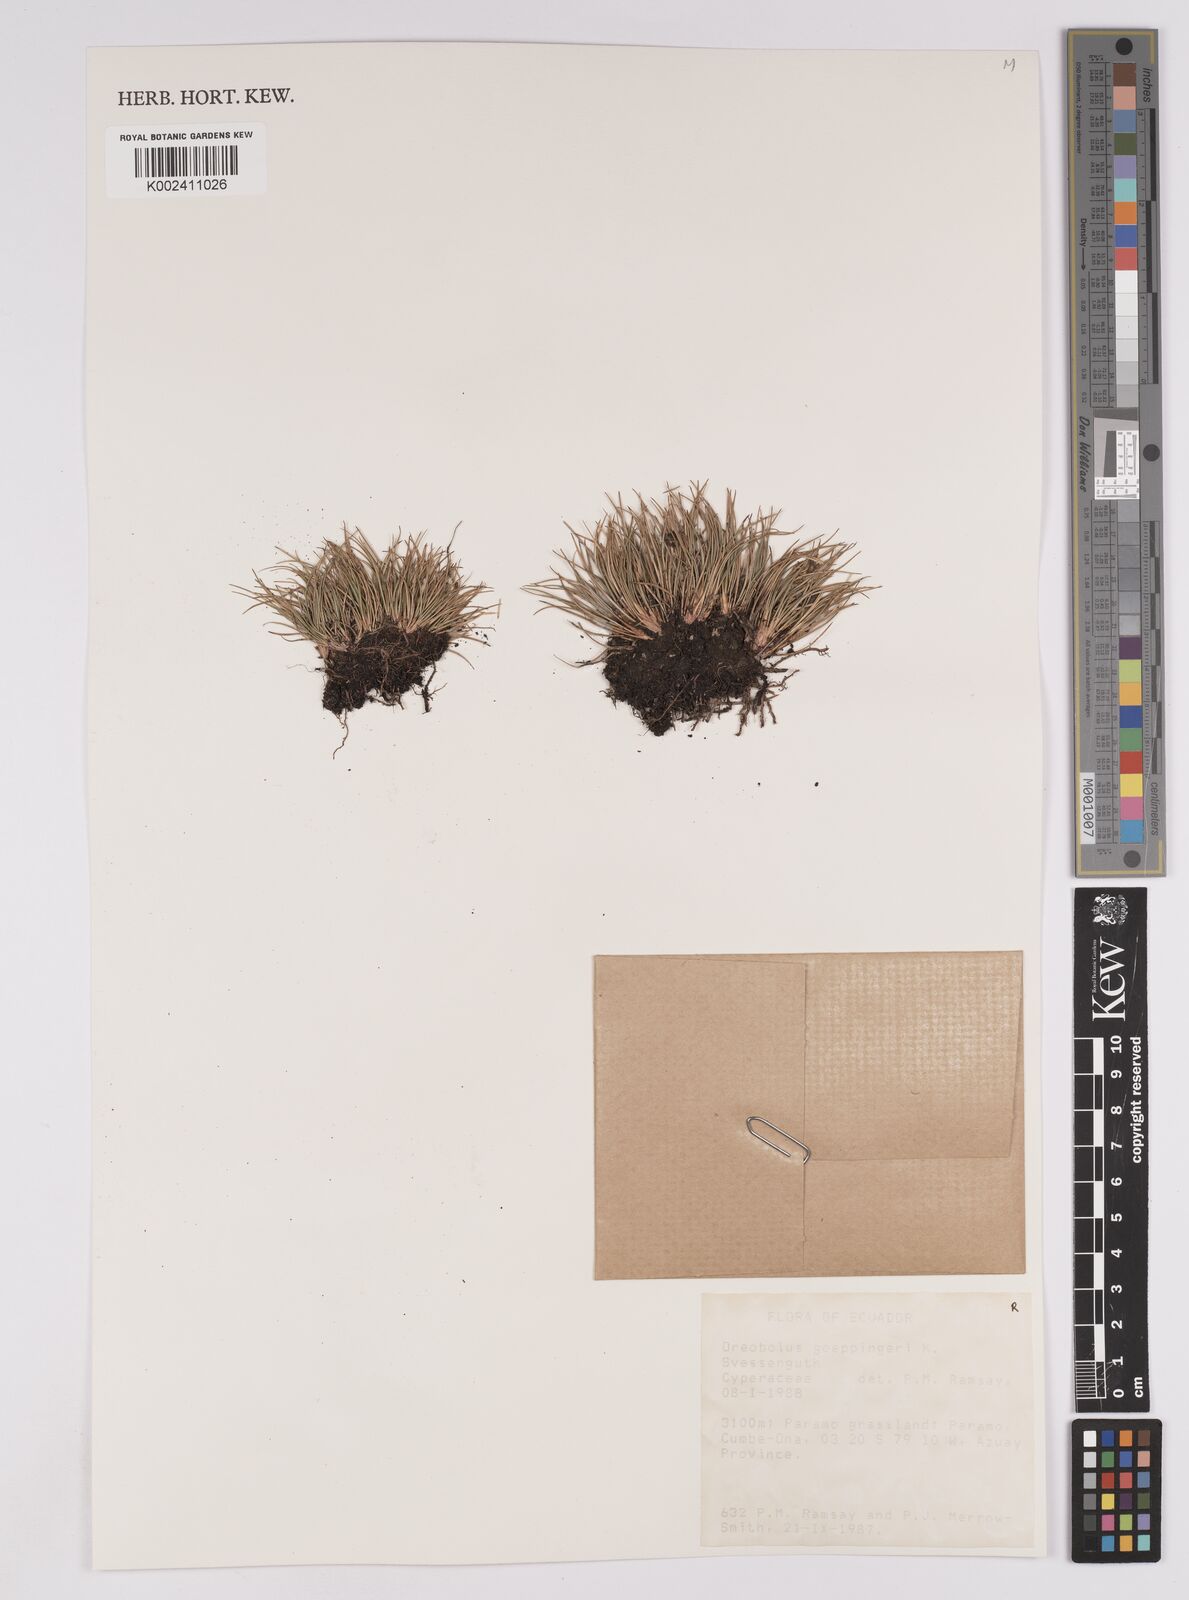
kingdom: Plantae
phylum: Tracheophyta
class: Liliopsida
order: Poales
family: Cyperaceae
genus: Oreobolus
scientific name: Oreobolus goeppingeri
